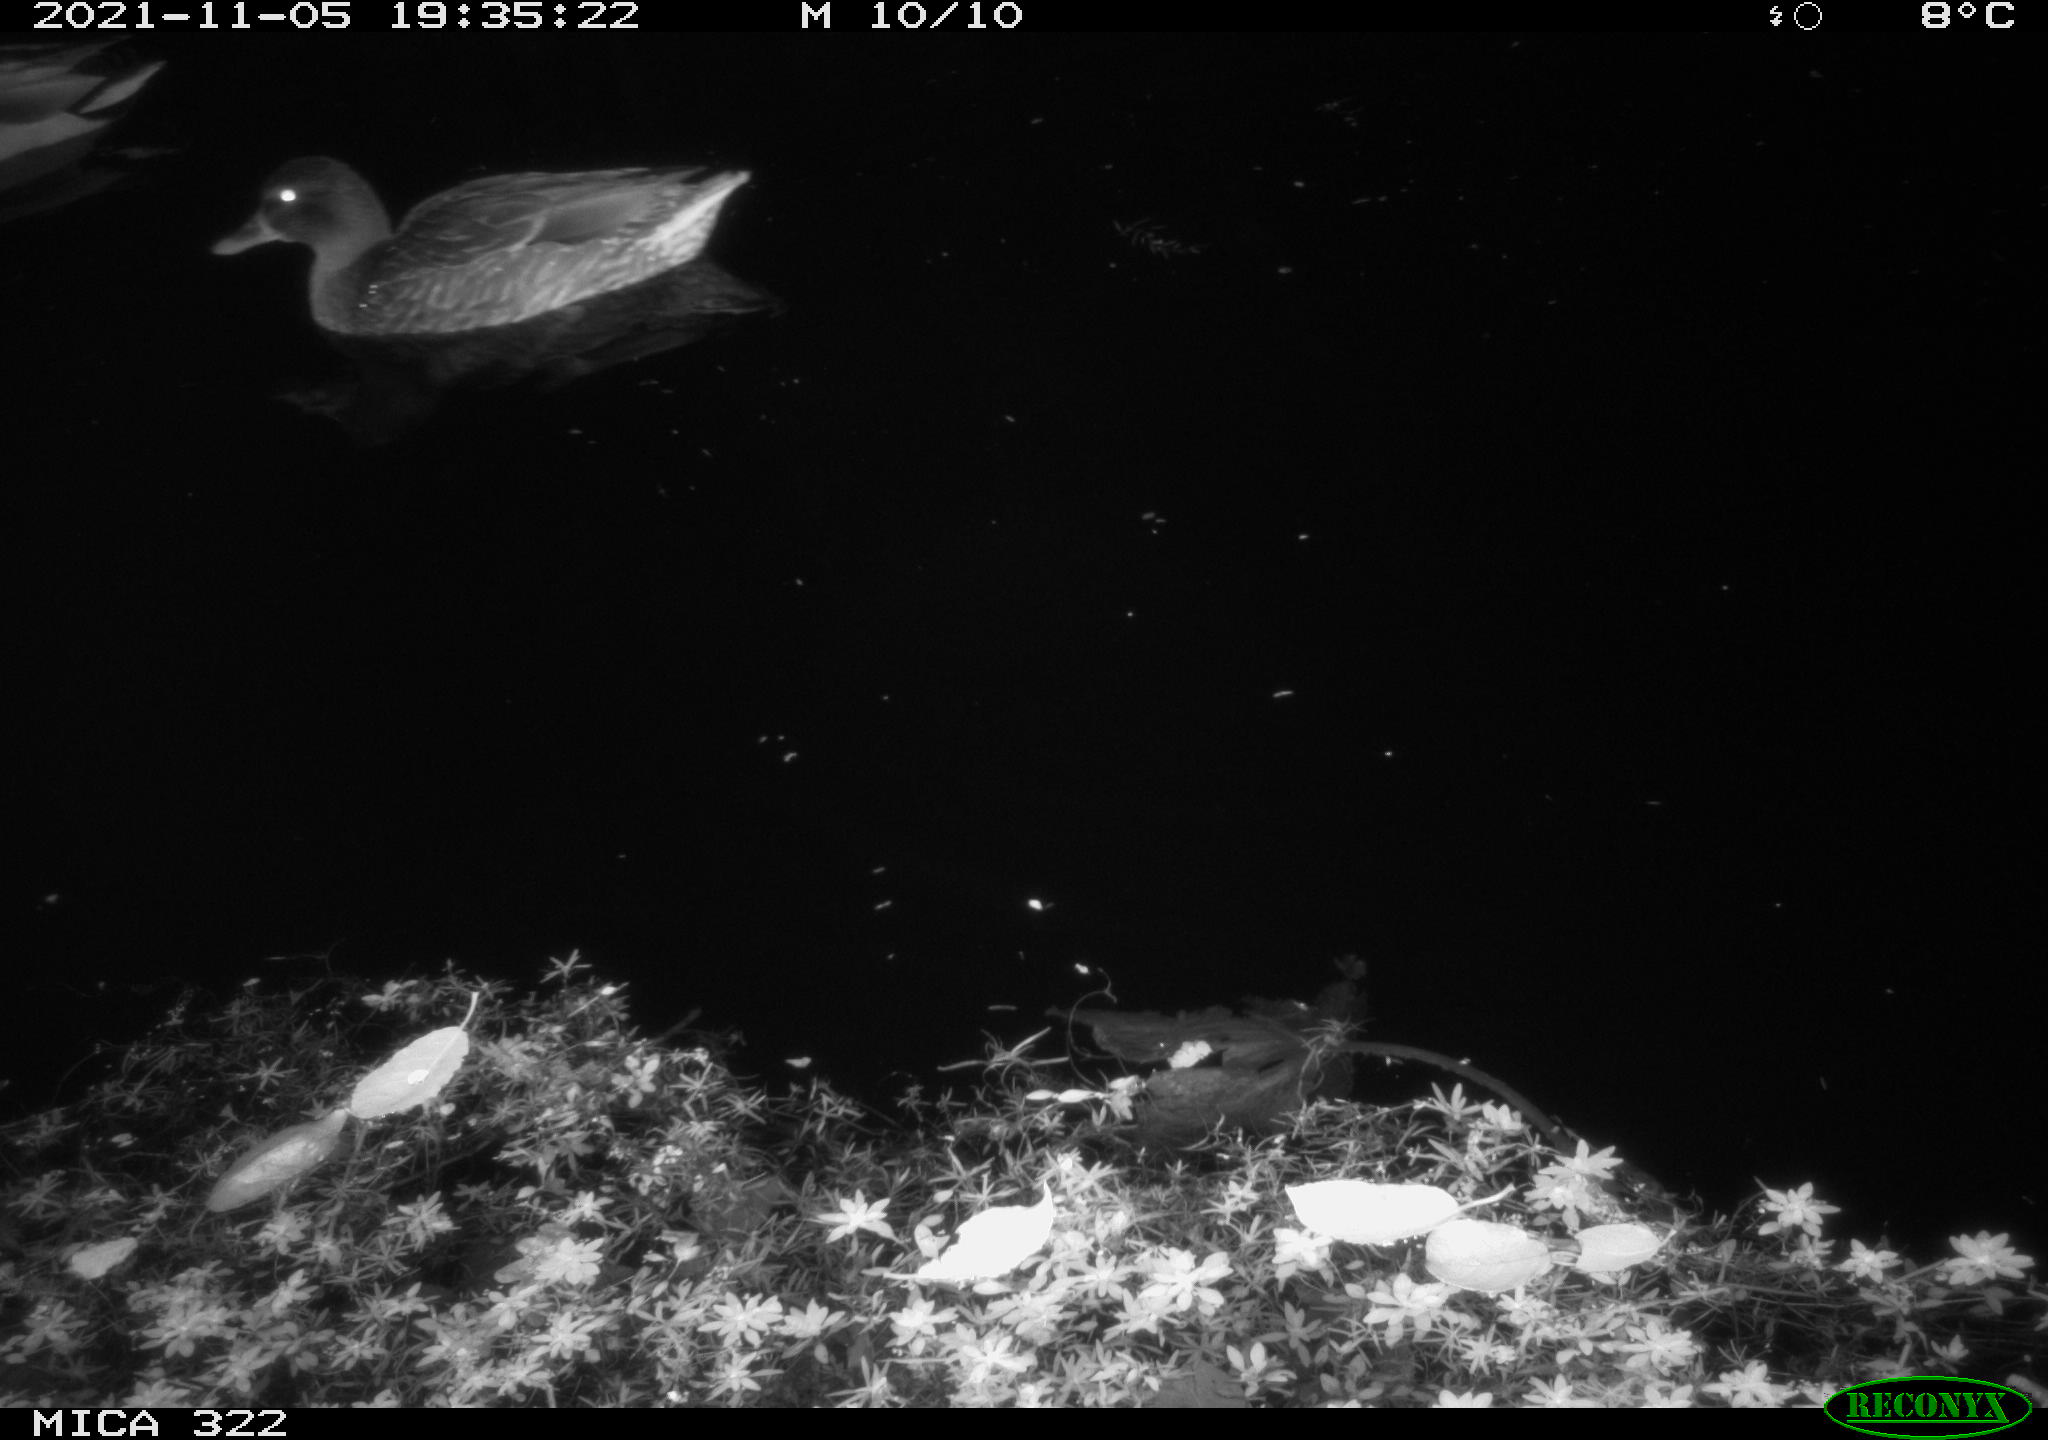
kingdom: Animalia
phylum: Chordata
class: Aves
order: Anseriformes
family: Anatidae
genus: Anas
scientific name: Anas platyrhynchos
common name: Mallard
